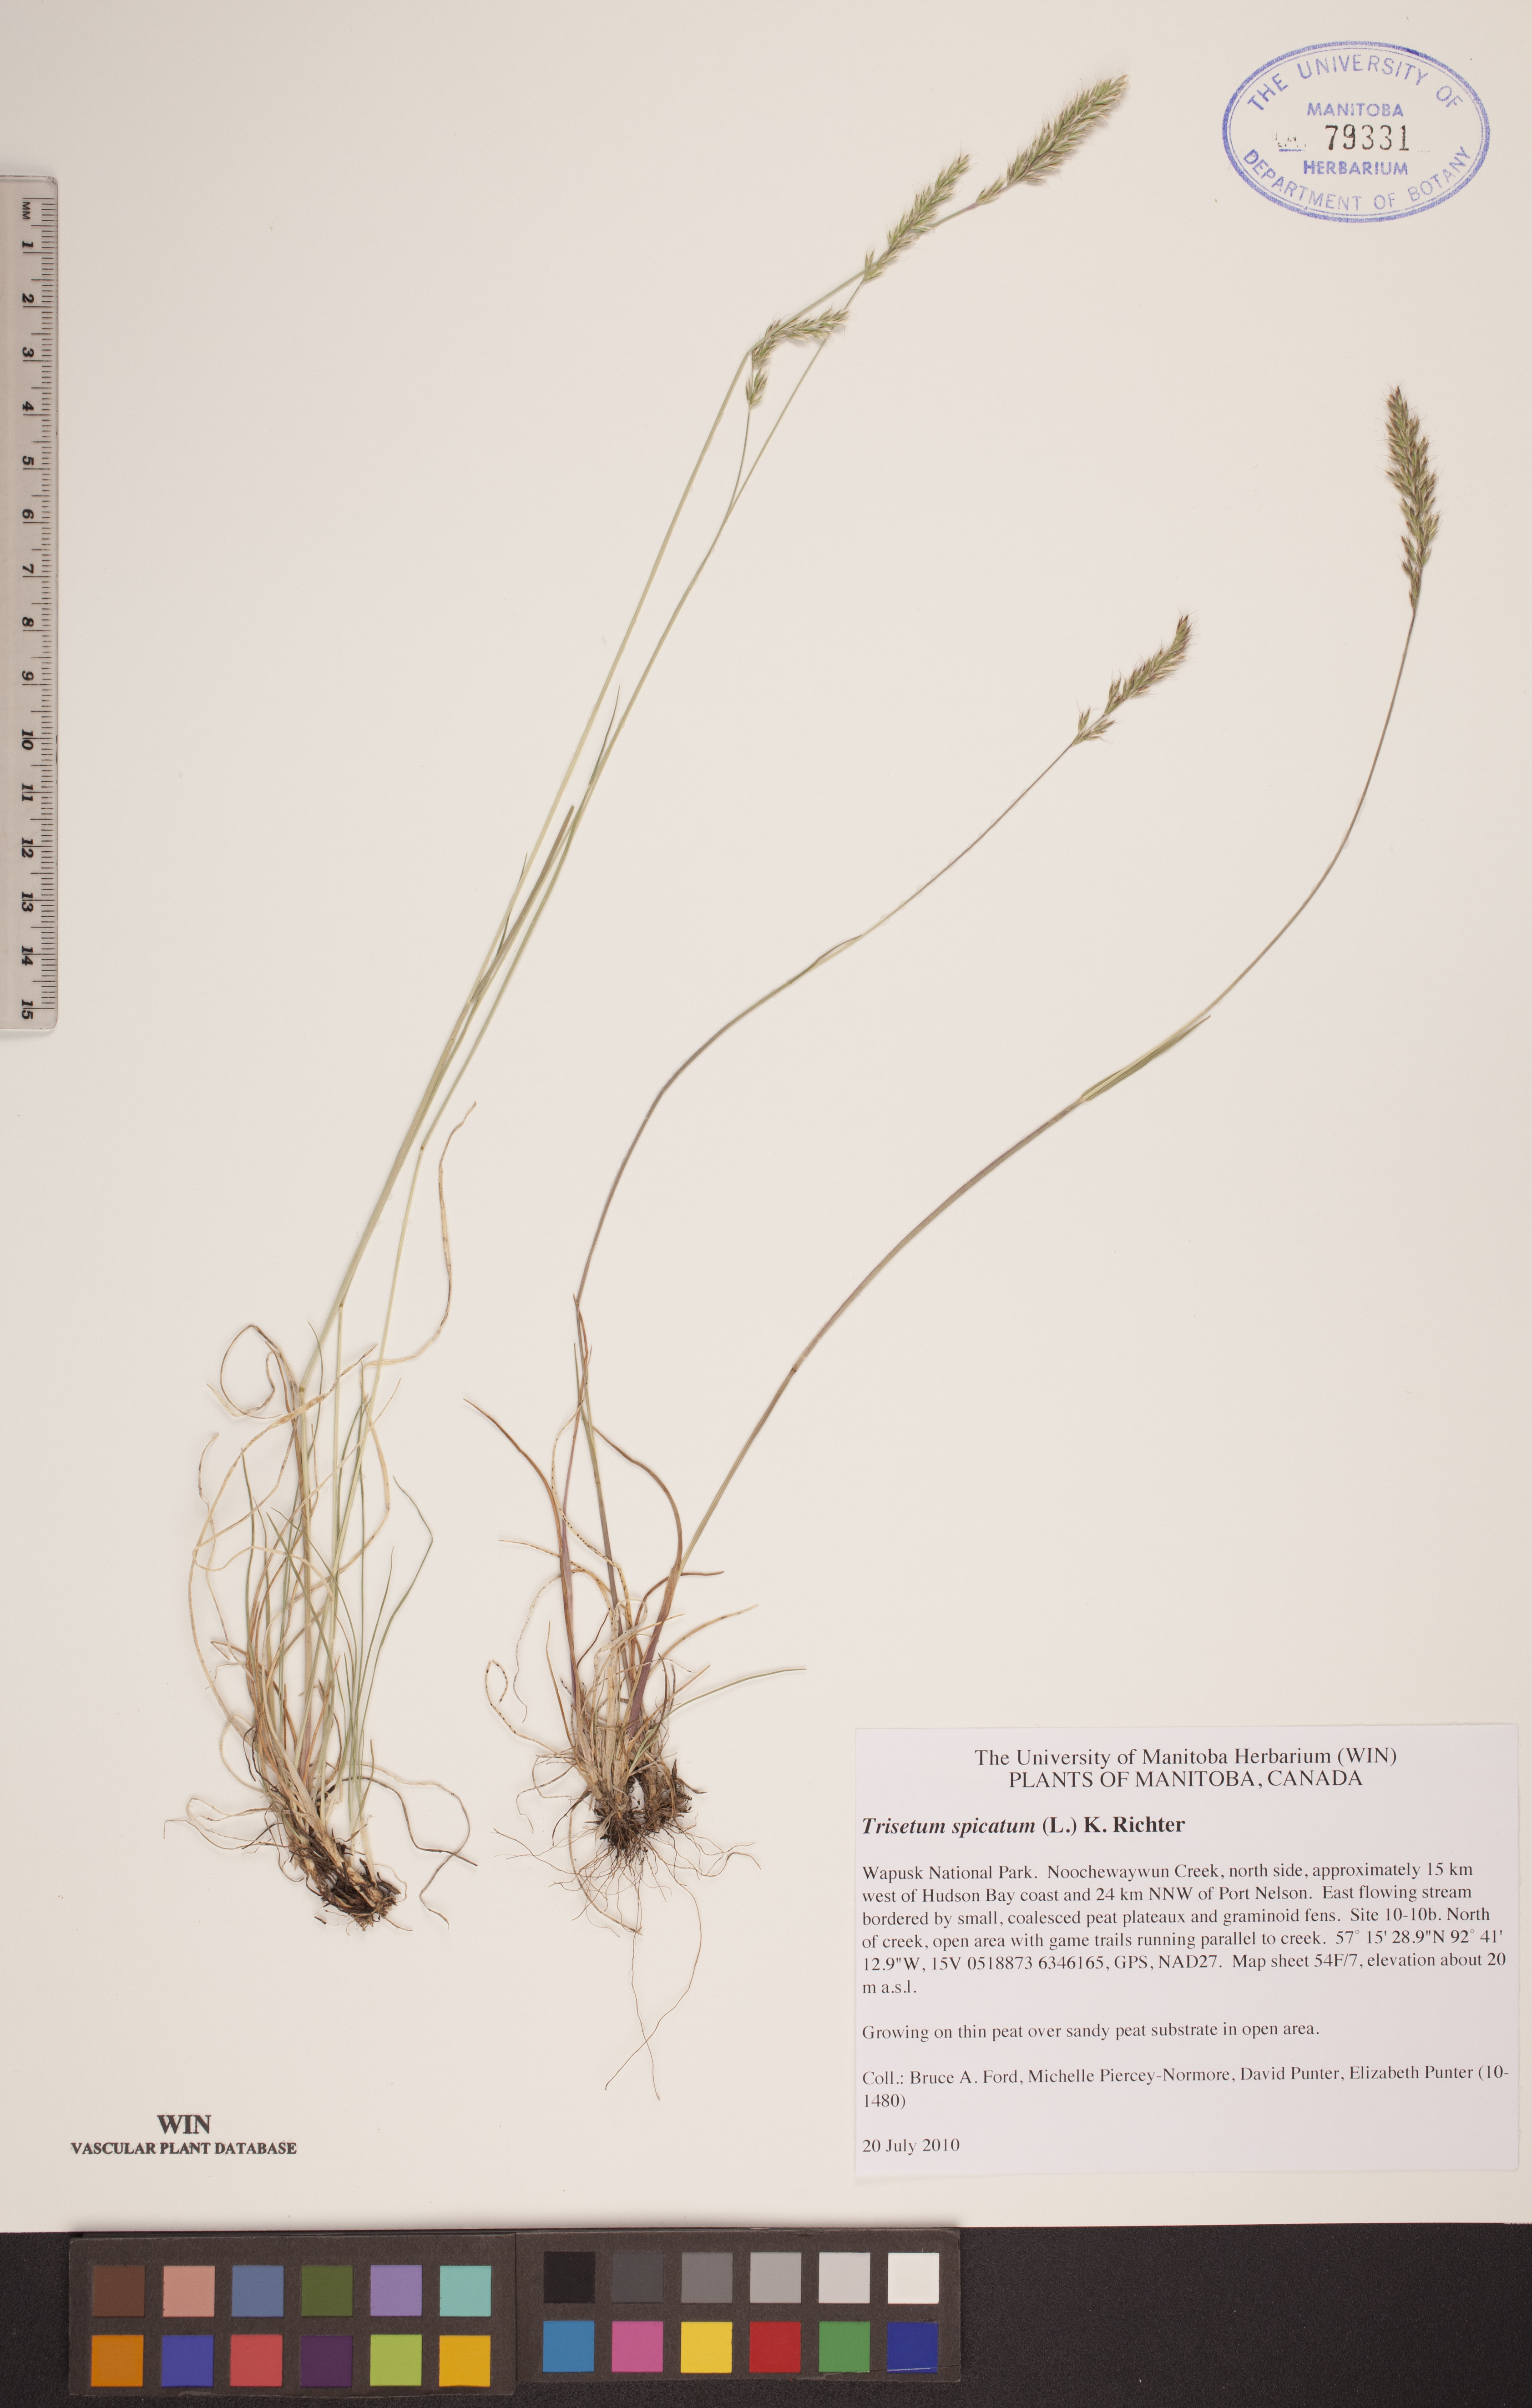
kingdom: Plantae
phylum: Tracheophyta
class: Liliopsida
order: Poales
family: Poaceae
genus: Koeleria
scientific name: Koeleria spicata
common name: Mountain trisetum
